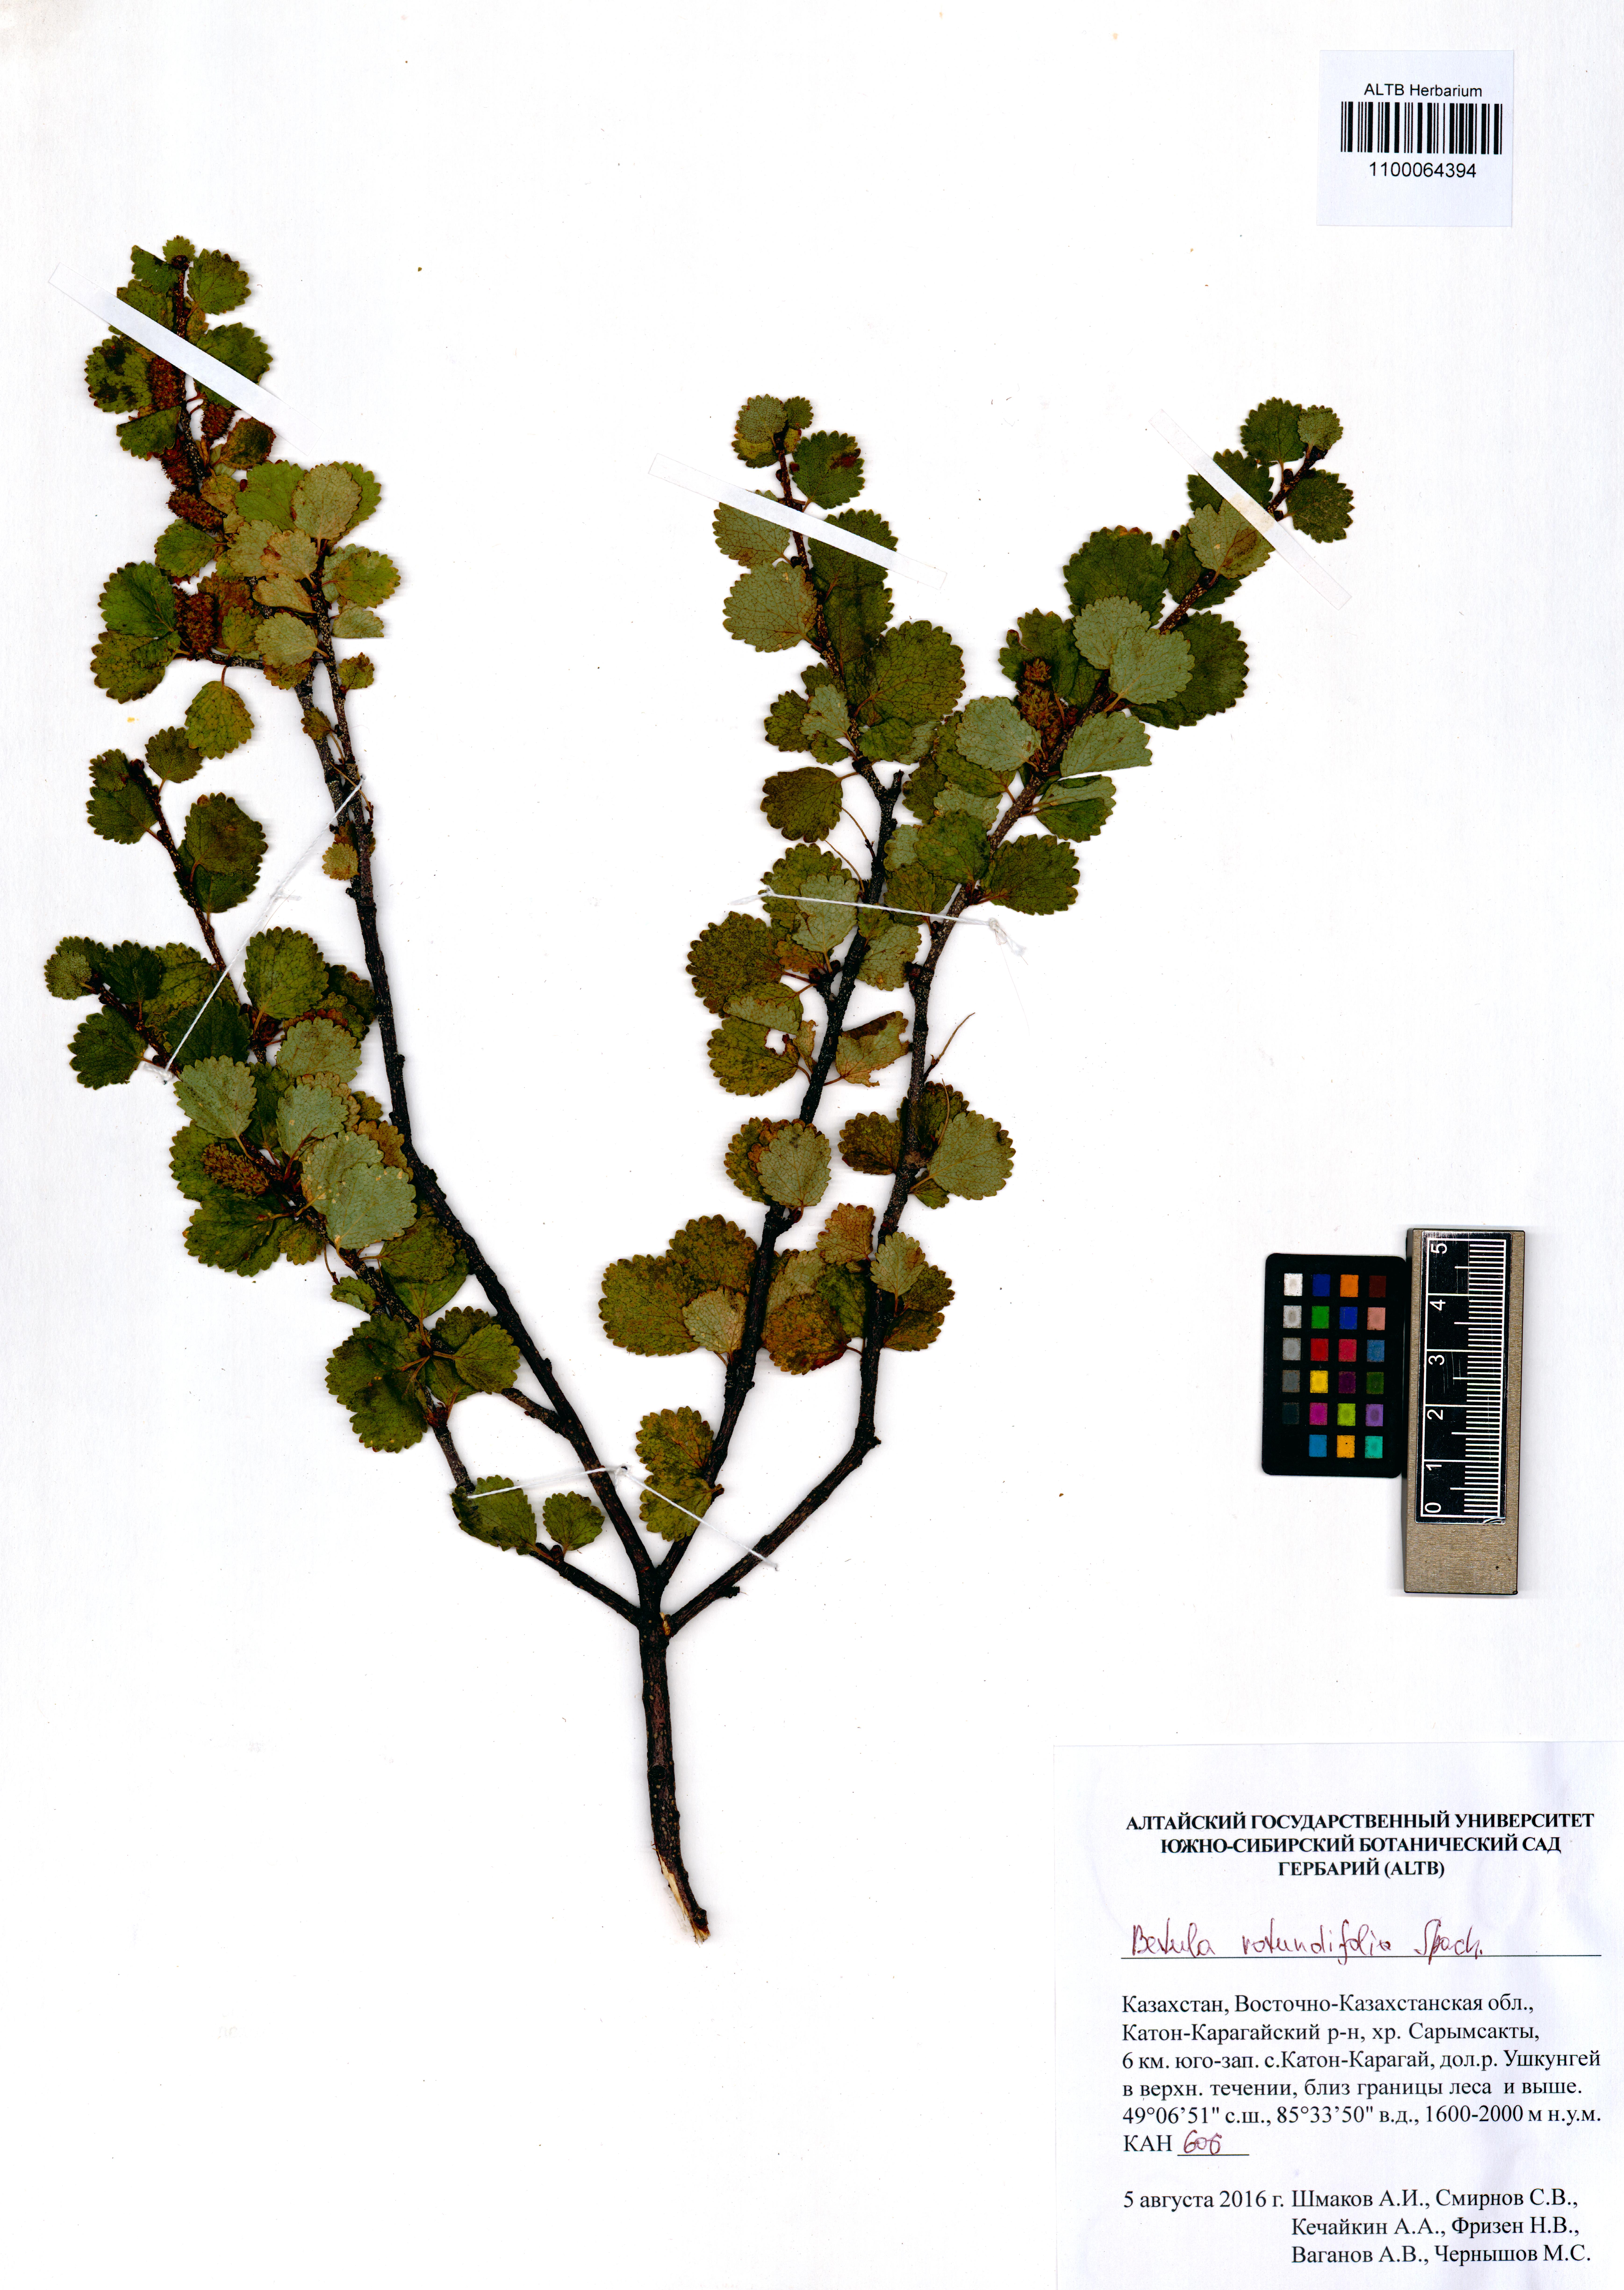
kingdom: Plantae
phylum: Tracheophyta
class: Magnoliopsida
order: Fagales
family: Betulaceae
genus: Betula
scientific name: Betula glandulosa
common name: Dwarf birch
